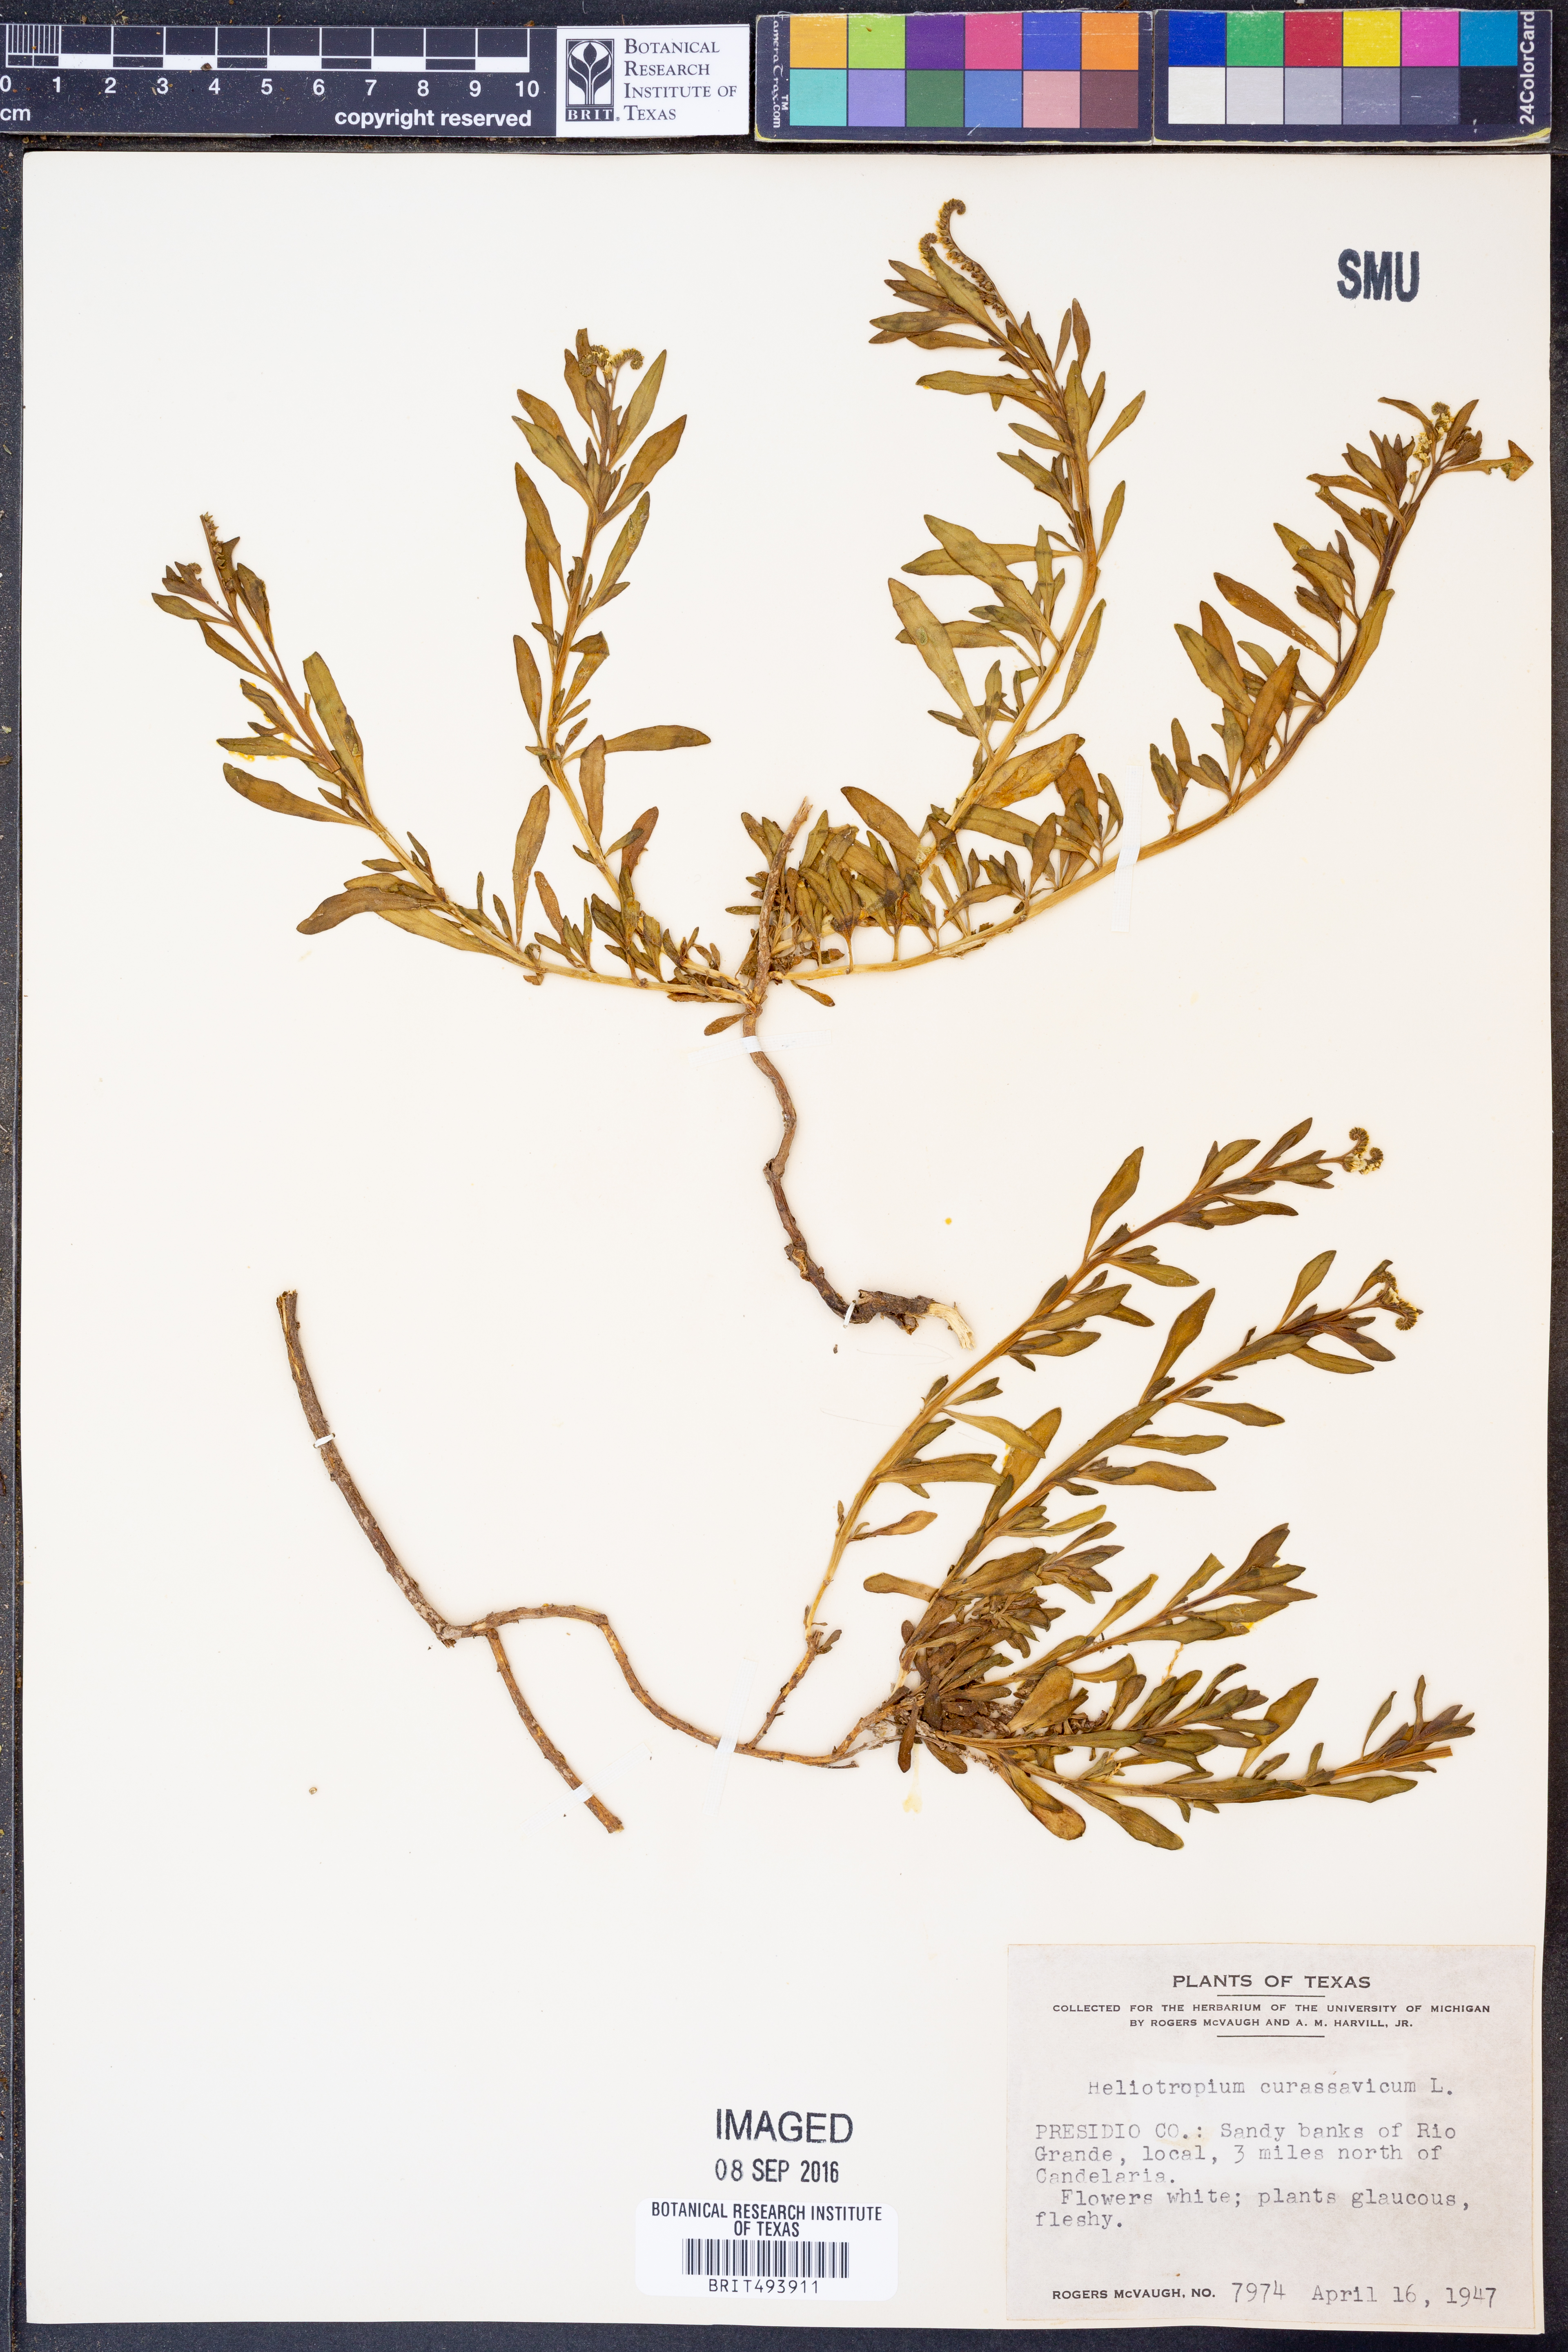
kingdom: Plantae
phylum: Tracheophyta
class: Magnoliopsida
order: Boraginales
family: Heliotropiaceae
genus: Heliotropium
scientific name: Heliotropium curassavicum
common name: Seaside heliotrope
